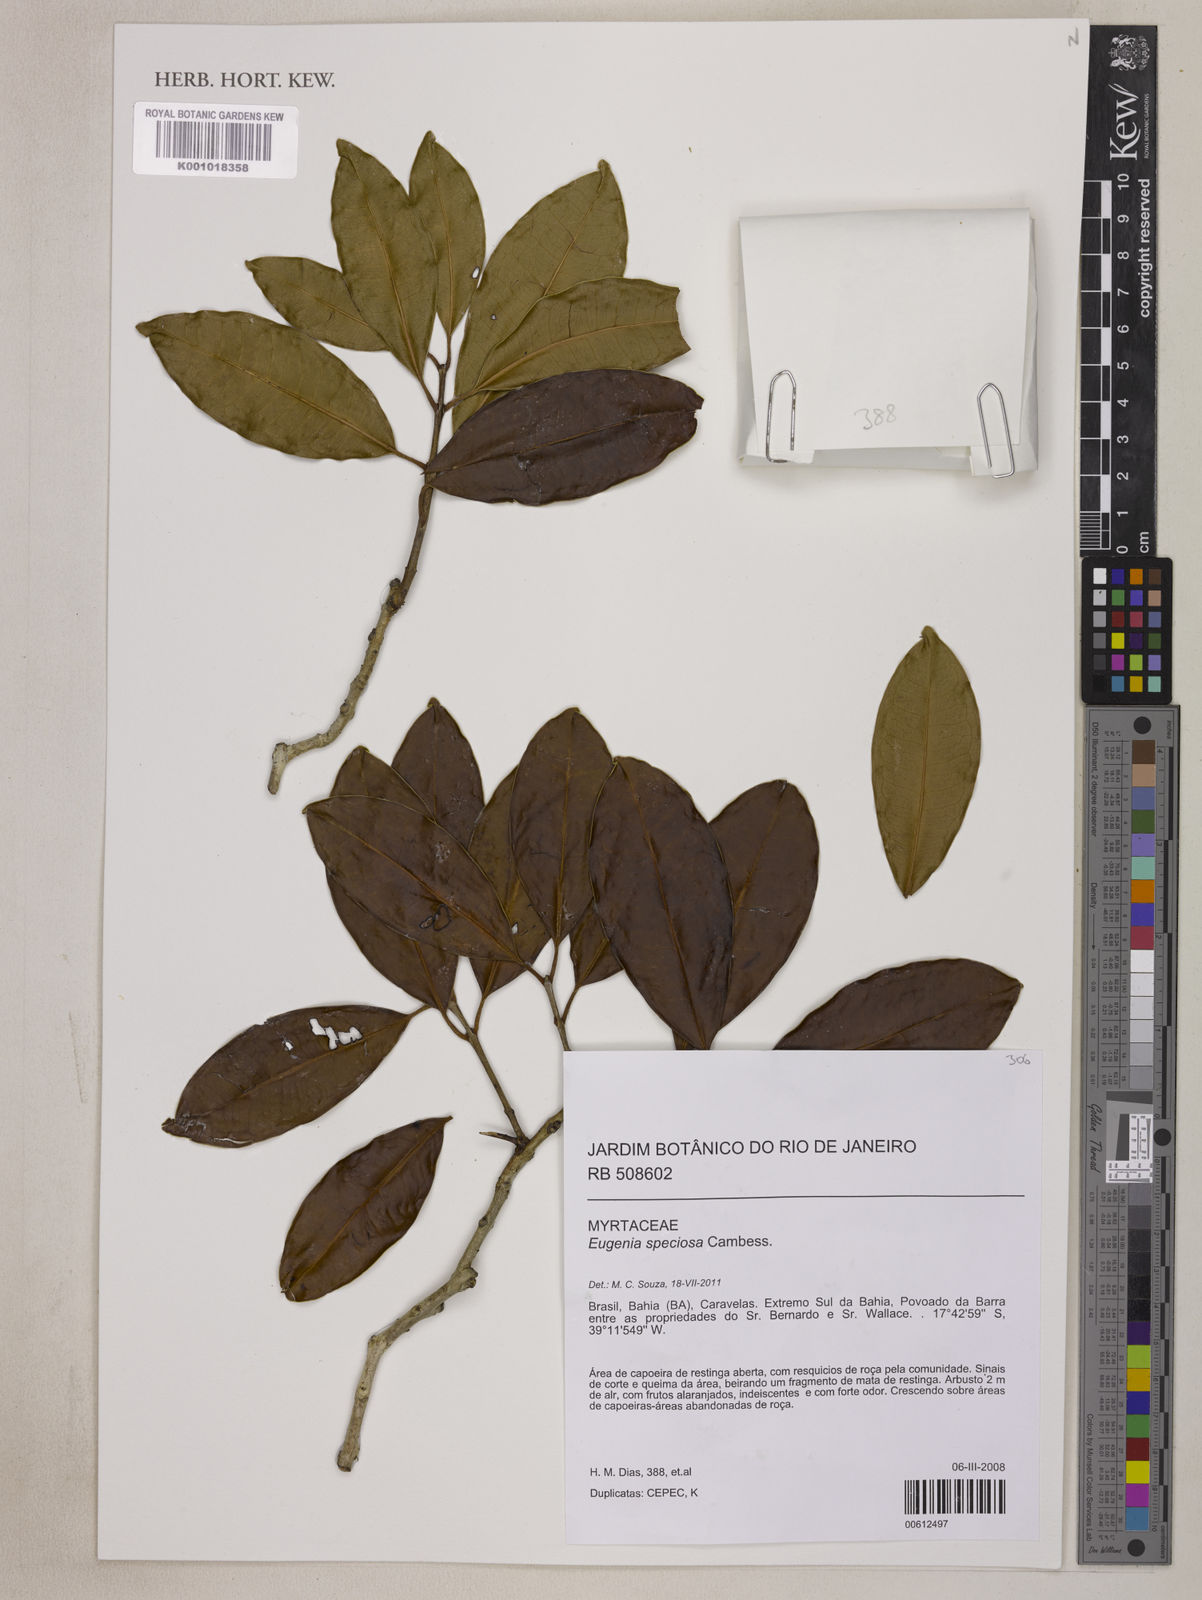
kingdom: Plantae
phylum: Tracheophyta
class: Magnoliopsida
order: Myrtales
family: Myrtaceae
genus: Eugenia
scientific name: Eugenia speciosa
